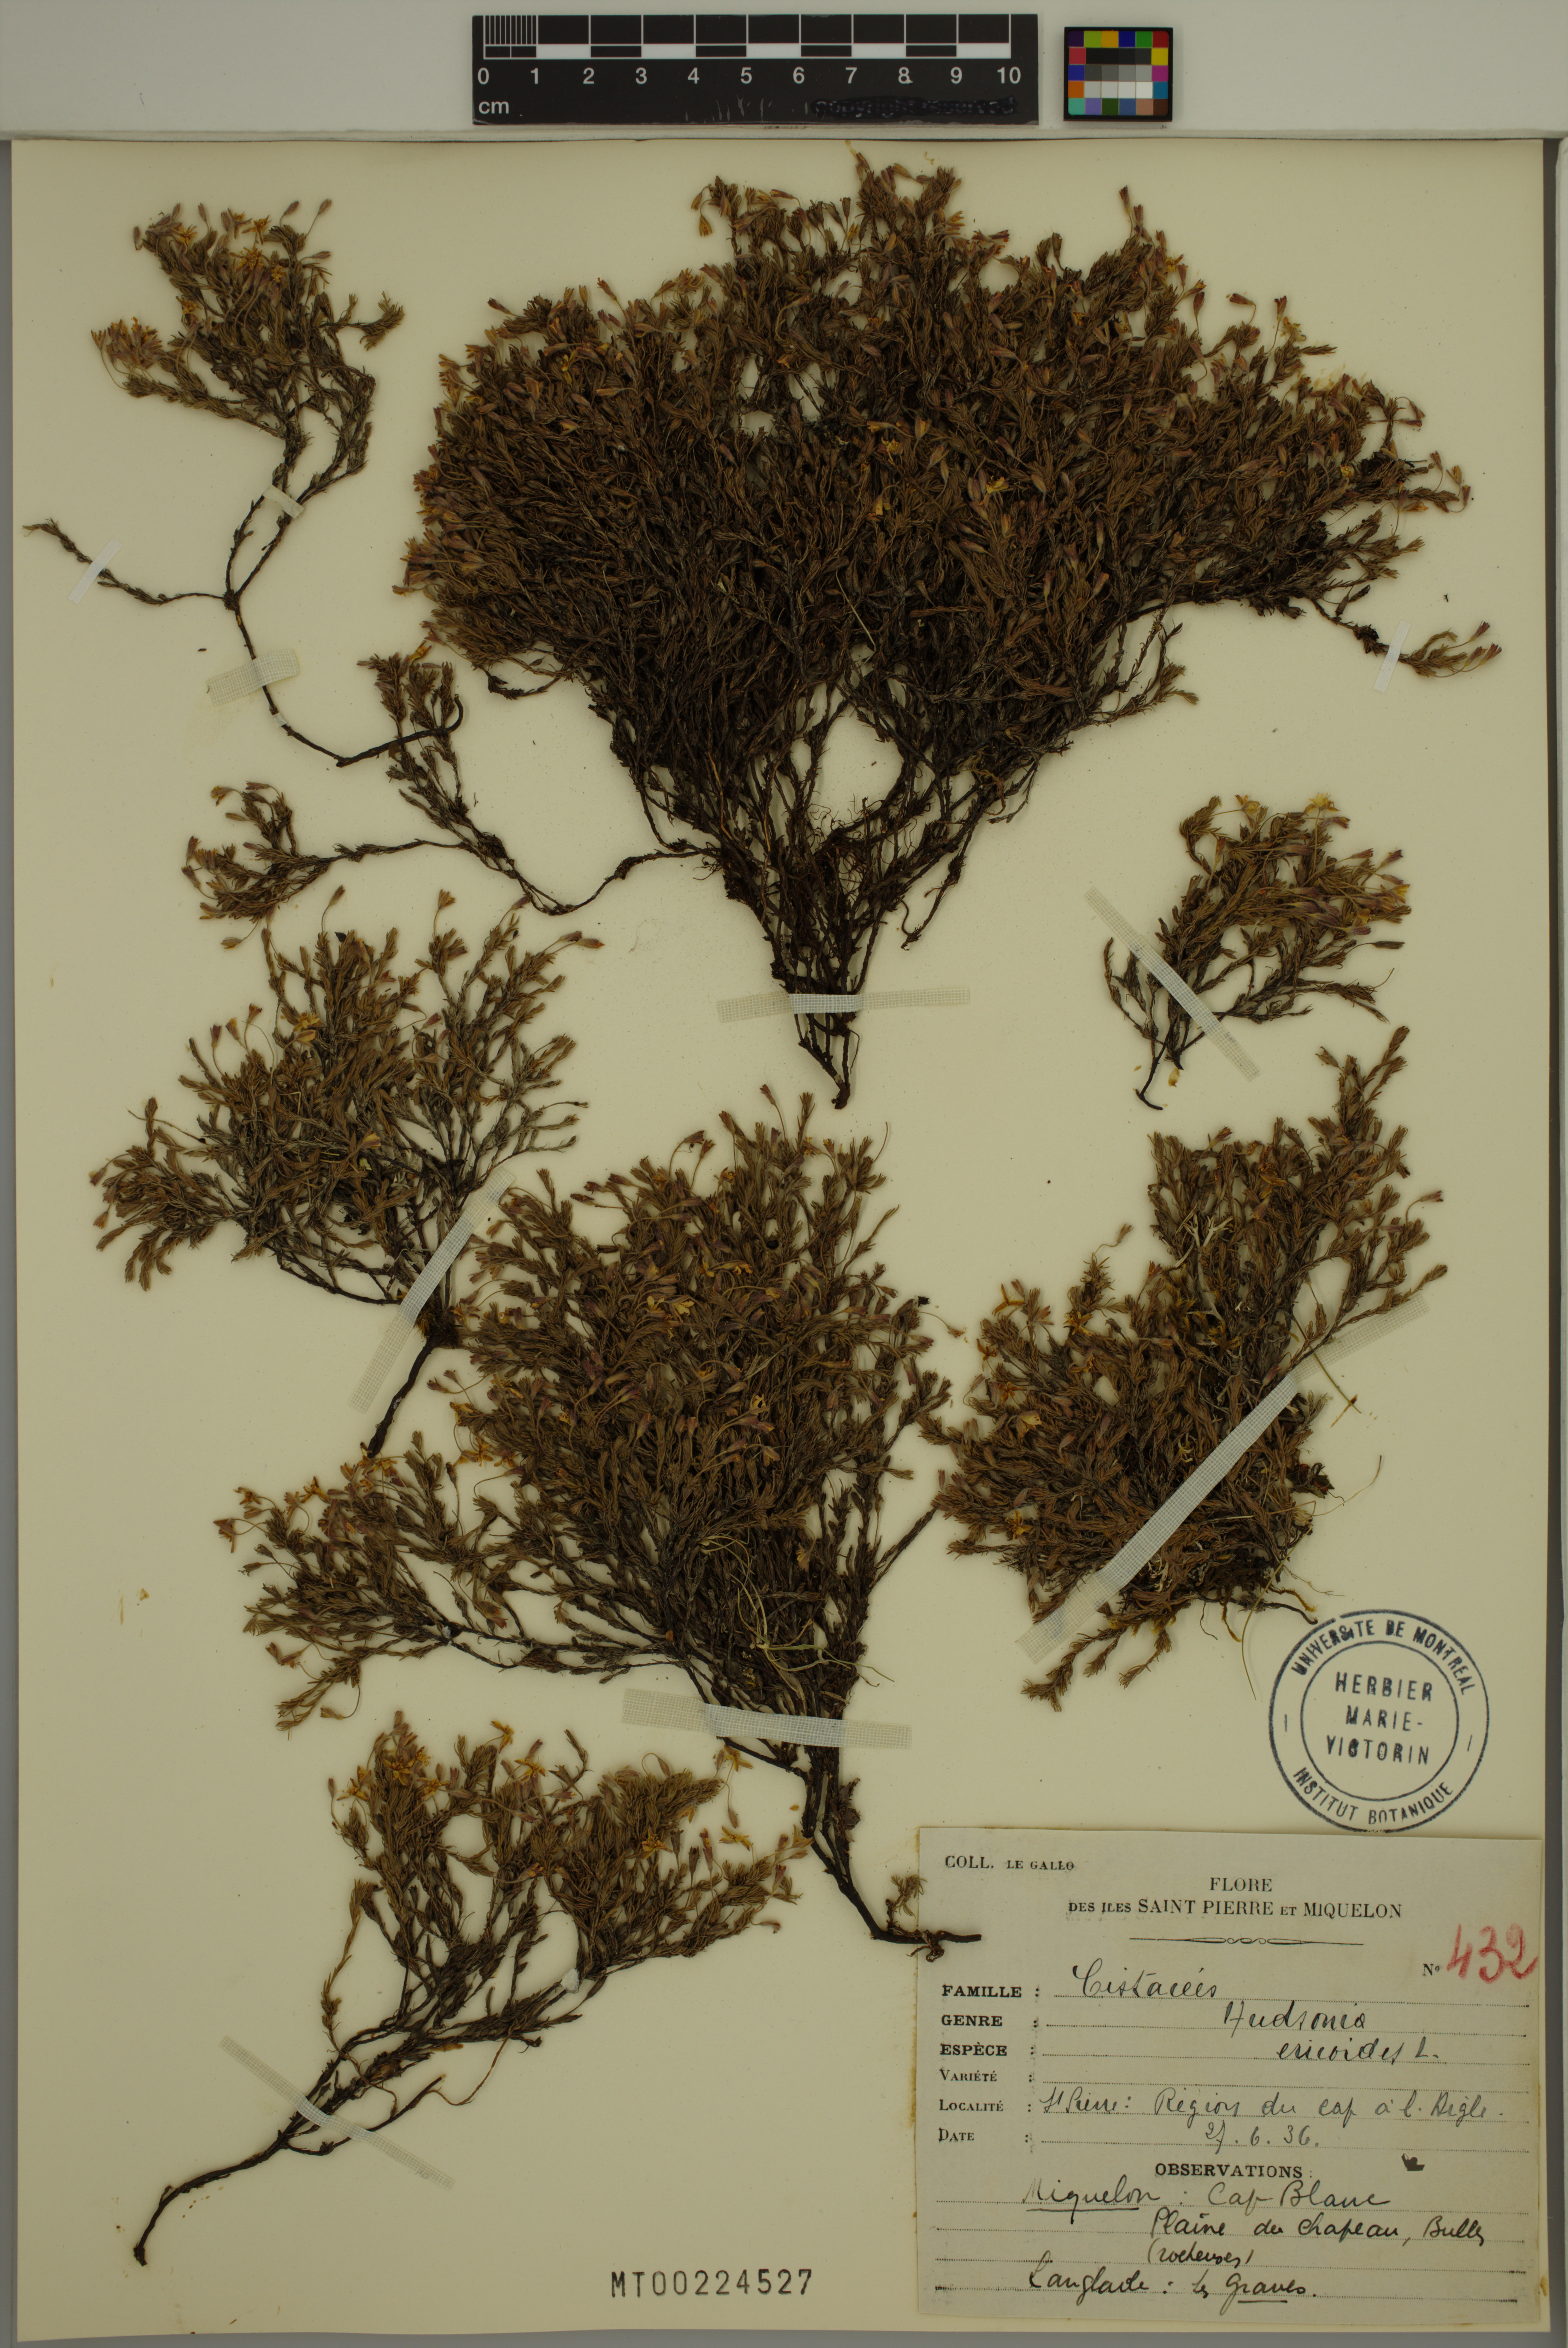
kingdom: Plantae
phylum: Tracheophyta
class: Magnoliopsida
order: Malvales
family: Cistaceae
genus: Hudsonia
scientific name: Hudsonia ericoides
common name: Golden-heather
